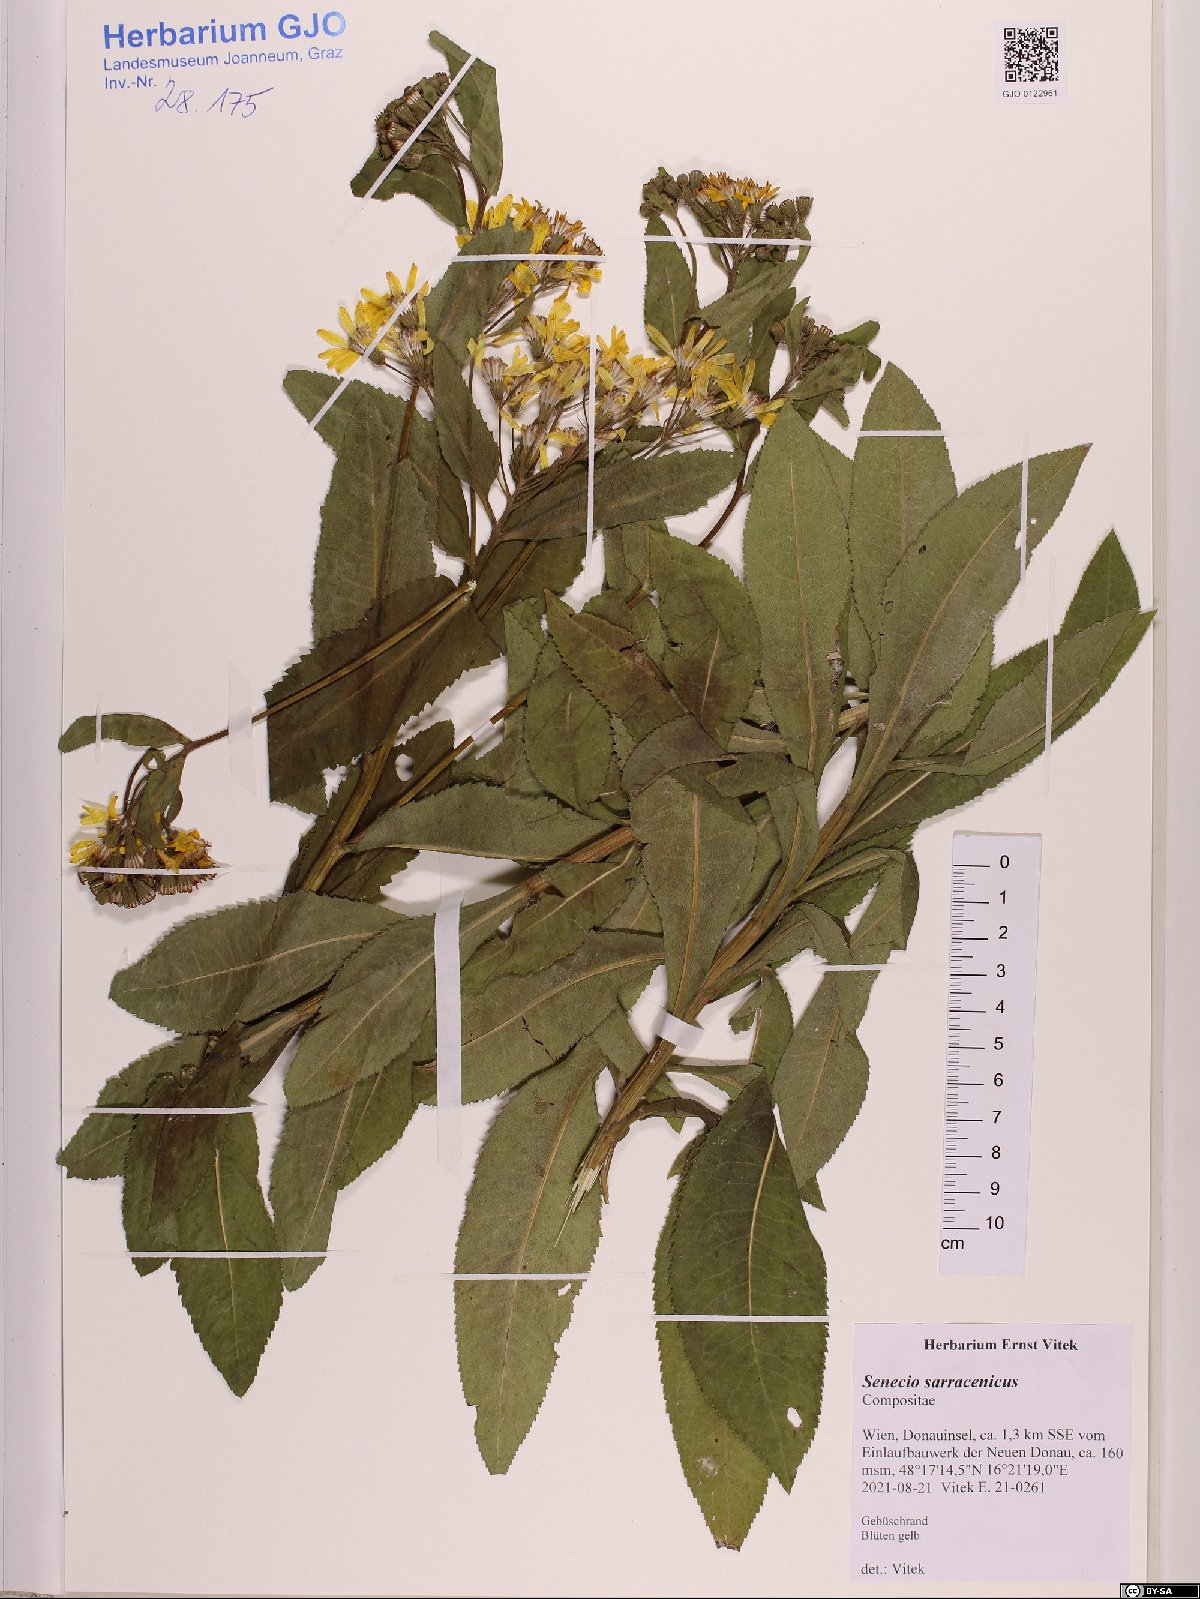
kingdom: Plantae
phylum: Tracheophyta
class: Magnoliopsida
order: Asterales
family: Asteraceae
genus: Senecio
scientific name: Senecio sarracenicus
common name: Broad-leaved ragwort
